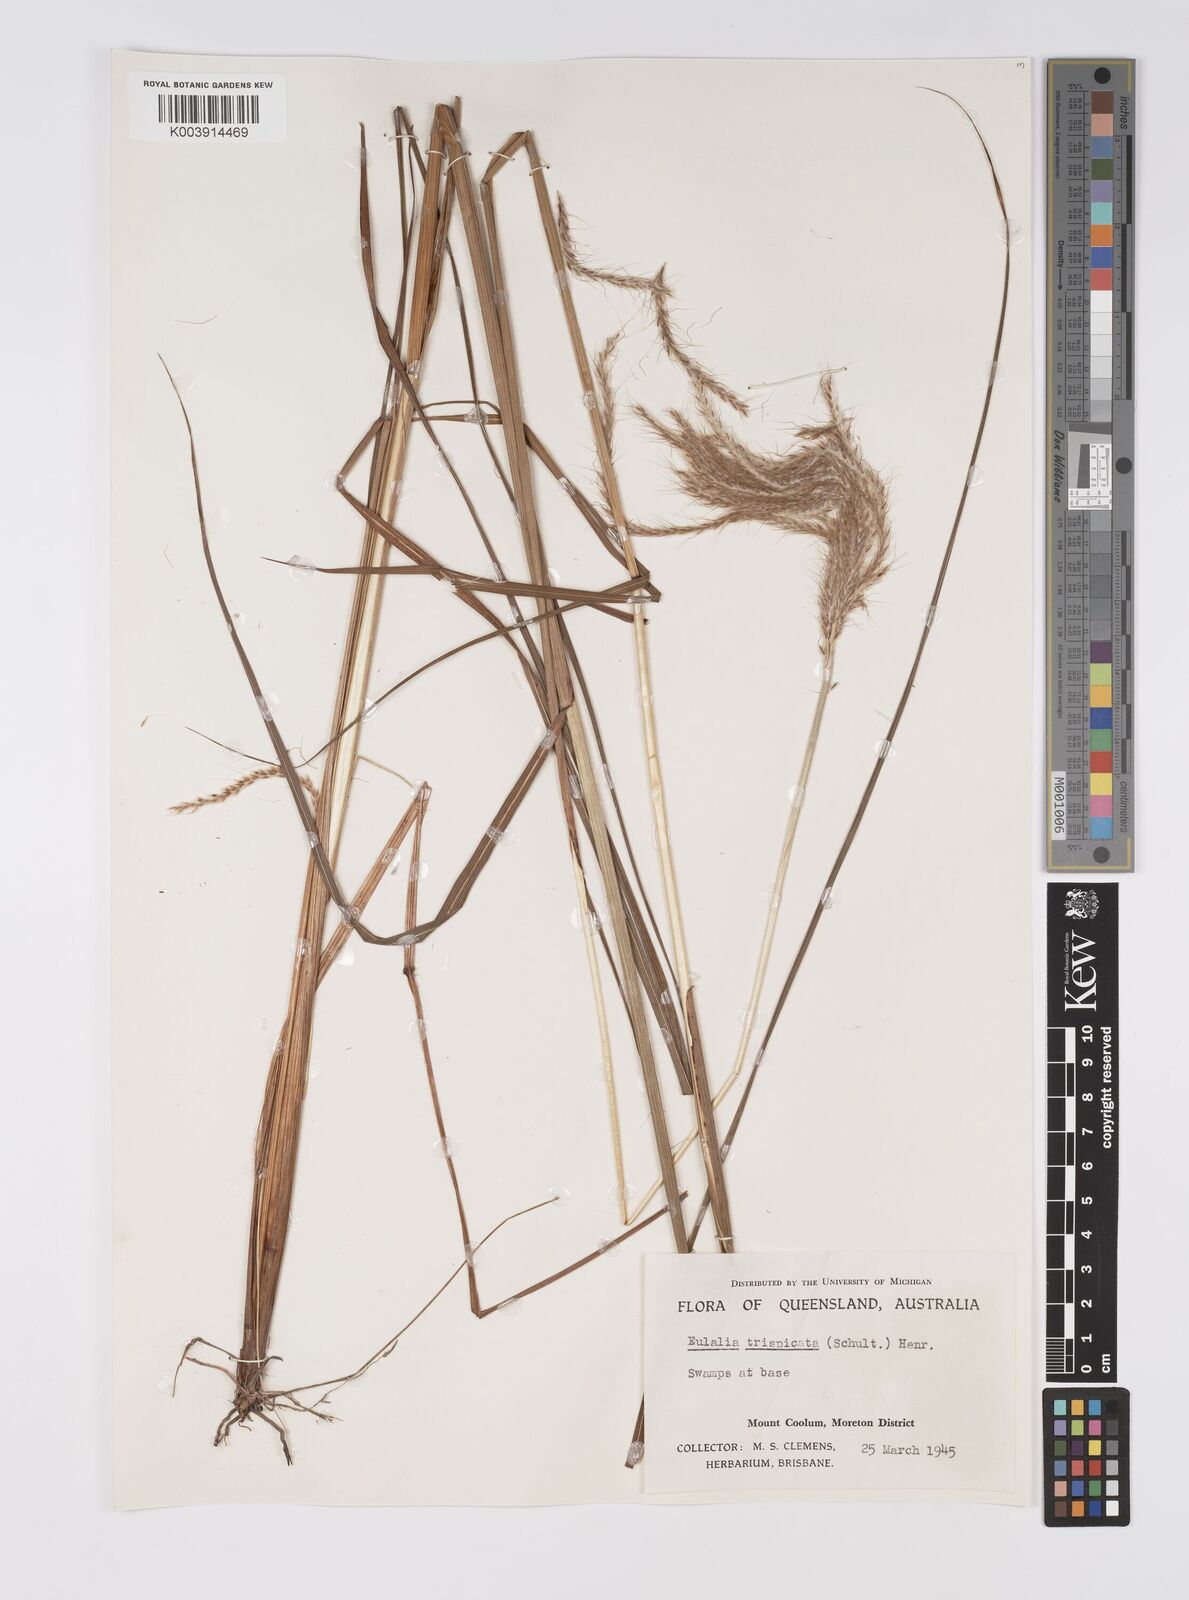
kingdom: Plantae
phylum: Tracheophyta
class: Liliopsida
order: Poales
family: Poaceae
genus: Pseudopogonatherum
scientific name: Pseudopogonatherum trispicatum
